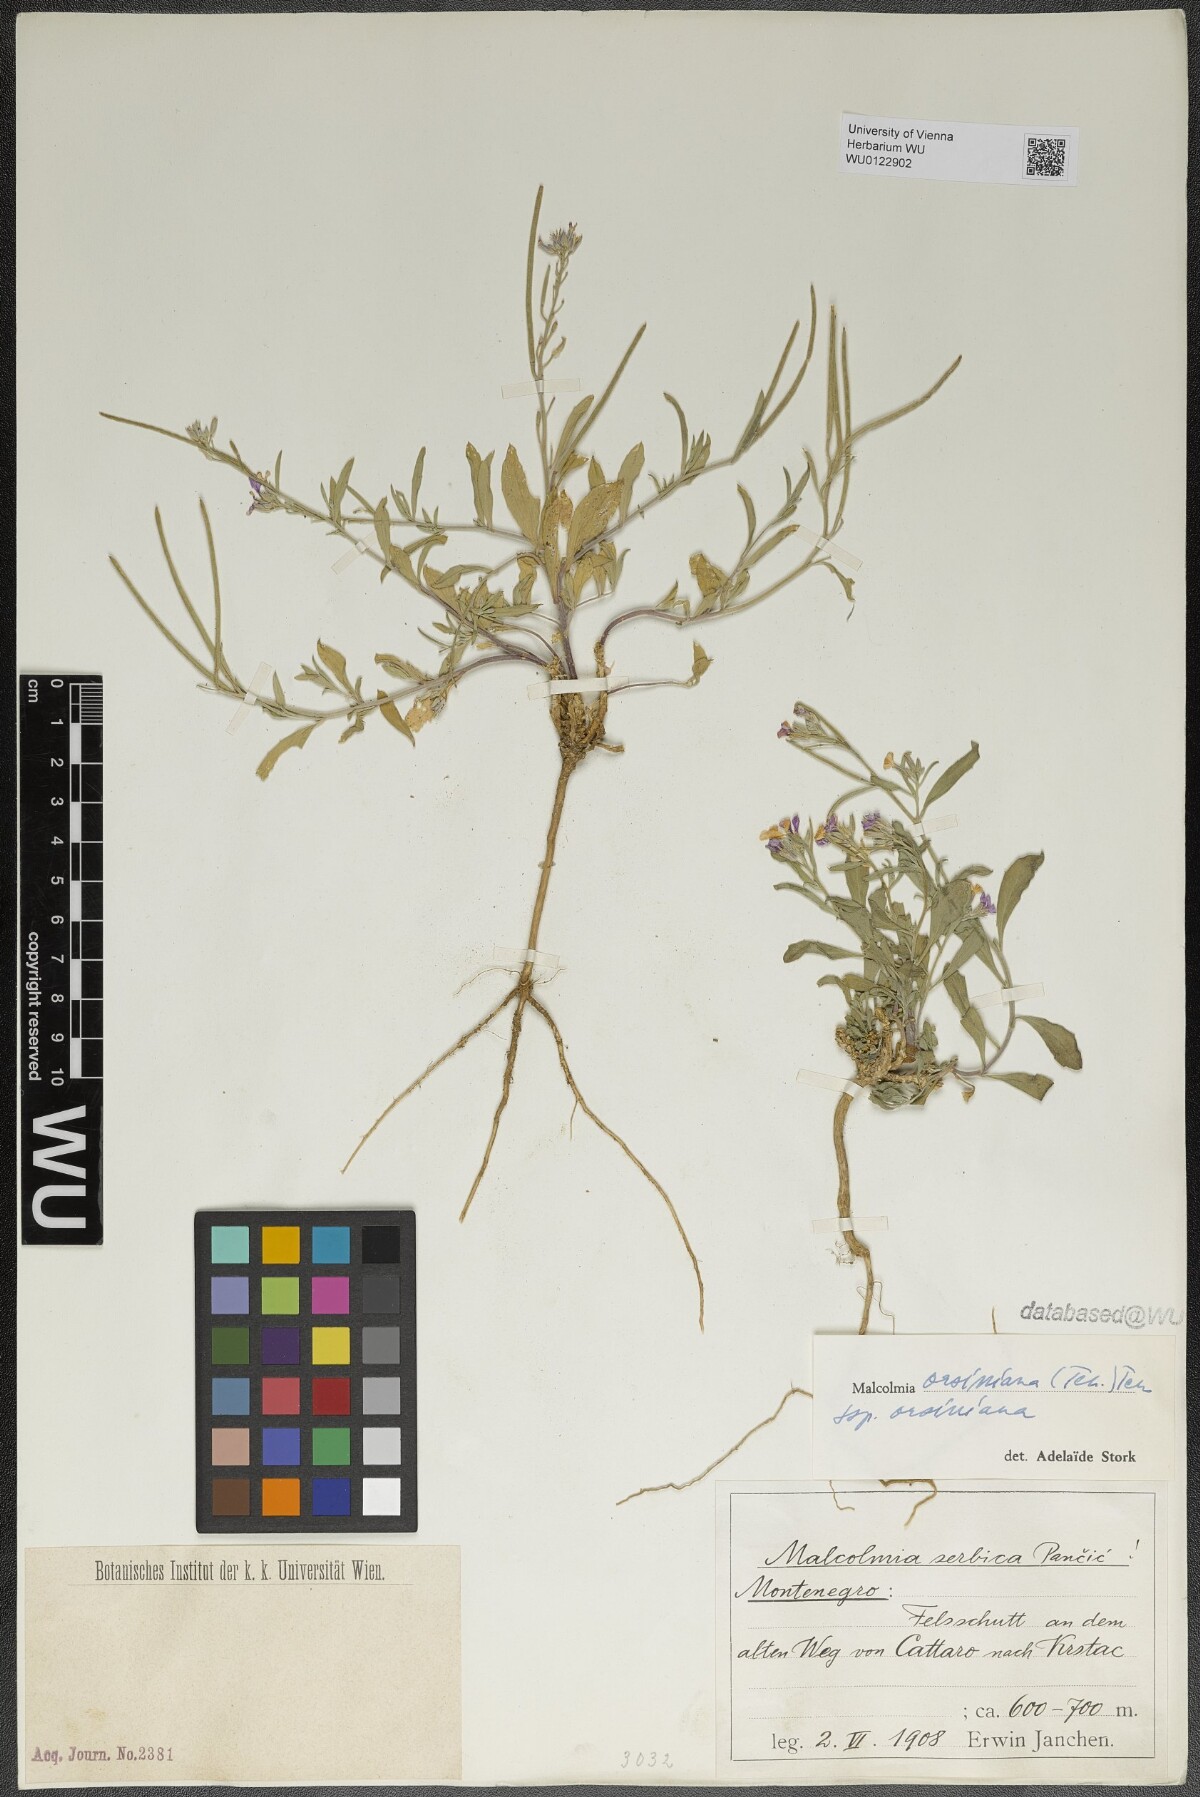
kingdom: Plantae
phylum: Tracheophyta
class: Magnoliopsida
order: Brassicales
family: Brassicaceae
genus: Malcolmia
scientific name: Malcolmia orsiniana
